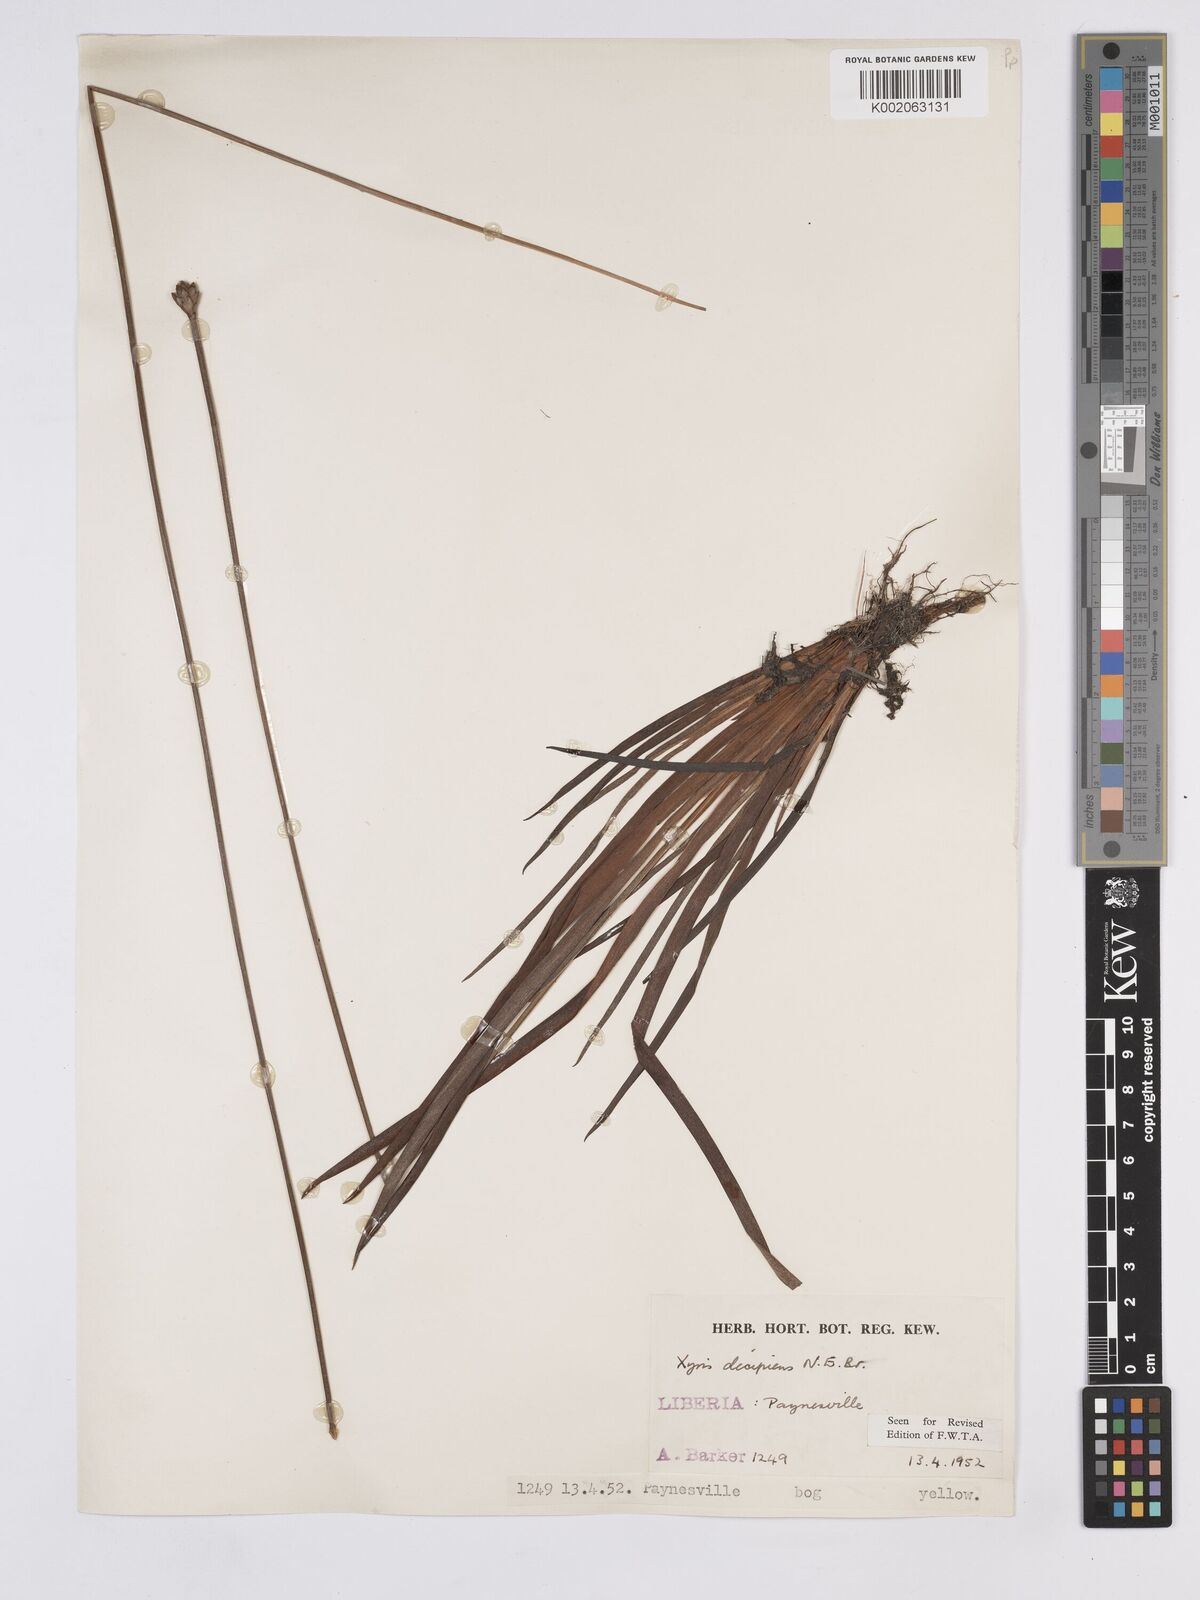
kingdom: Plantae
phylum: Tracheophyta
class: Liliopsida
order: Poales
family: Xyridaceae
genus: Xyris
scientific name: Xyris decipiens
